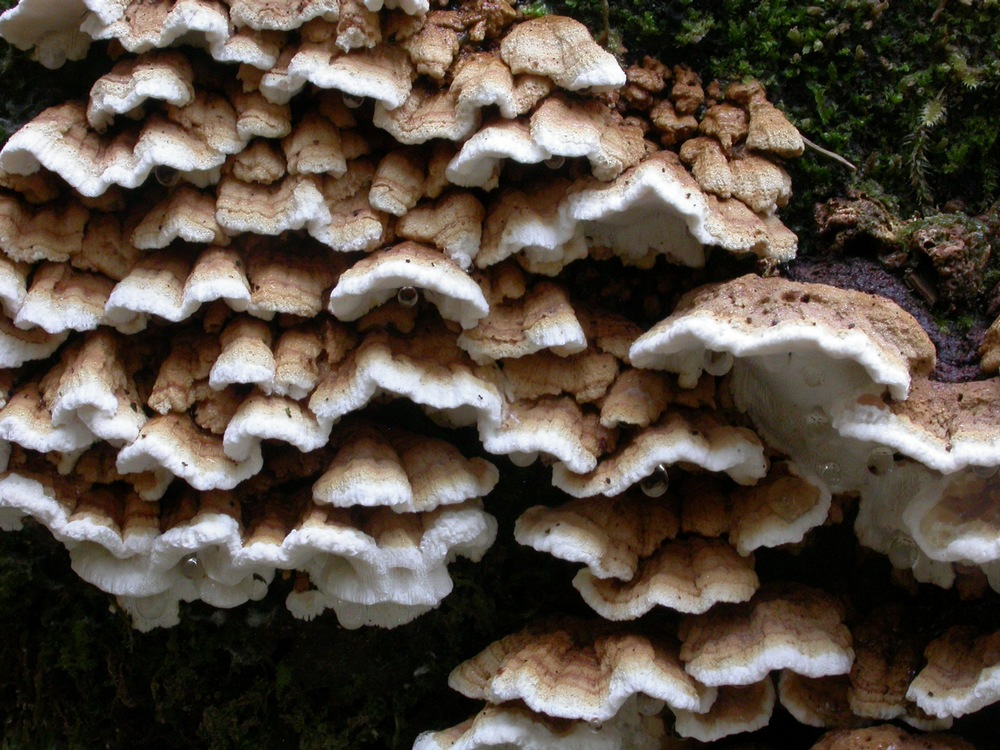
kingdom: Fungi
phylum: Basidiomycota
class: Agaricomycetes
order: Polyporales
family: Fomitopsidaceae
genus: Neoantrodia
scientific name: Neoantrodia serialis
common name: række-sejporesvamp
